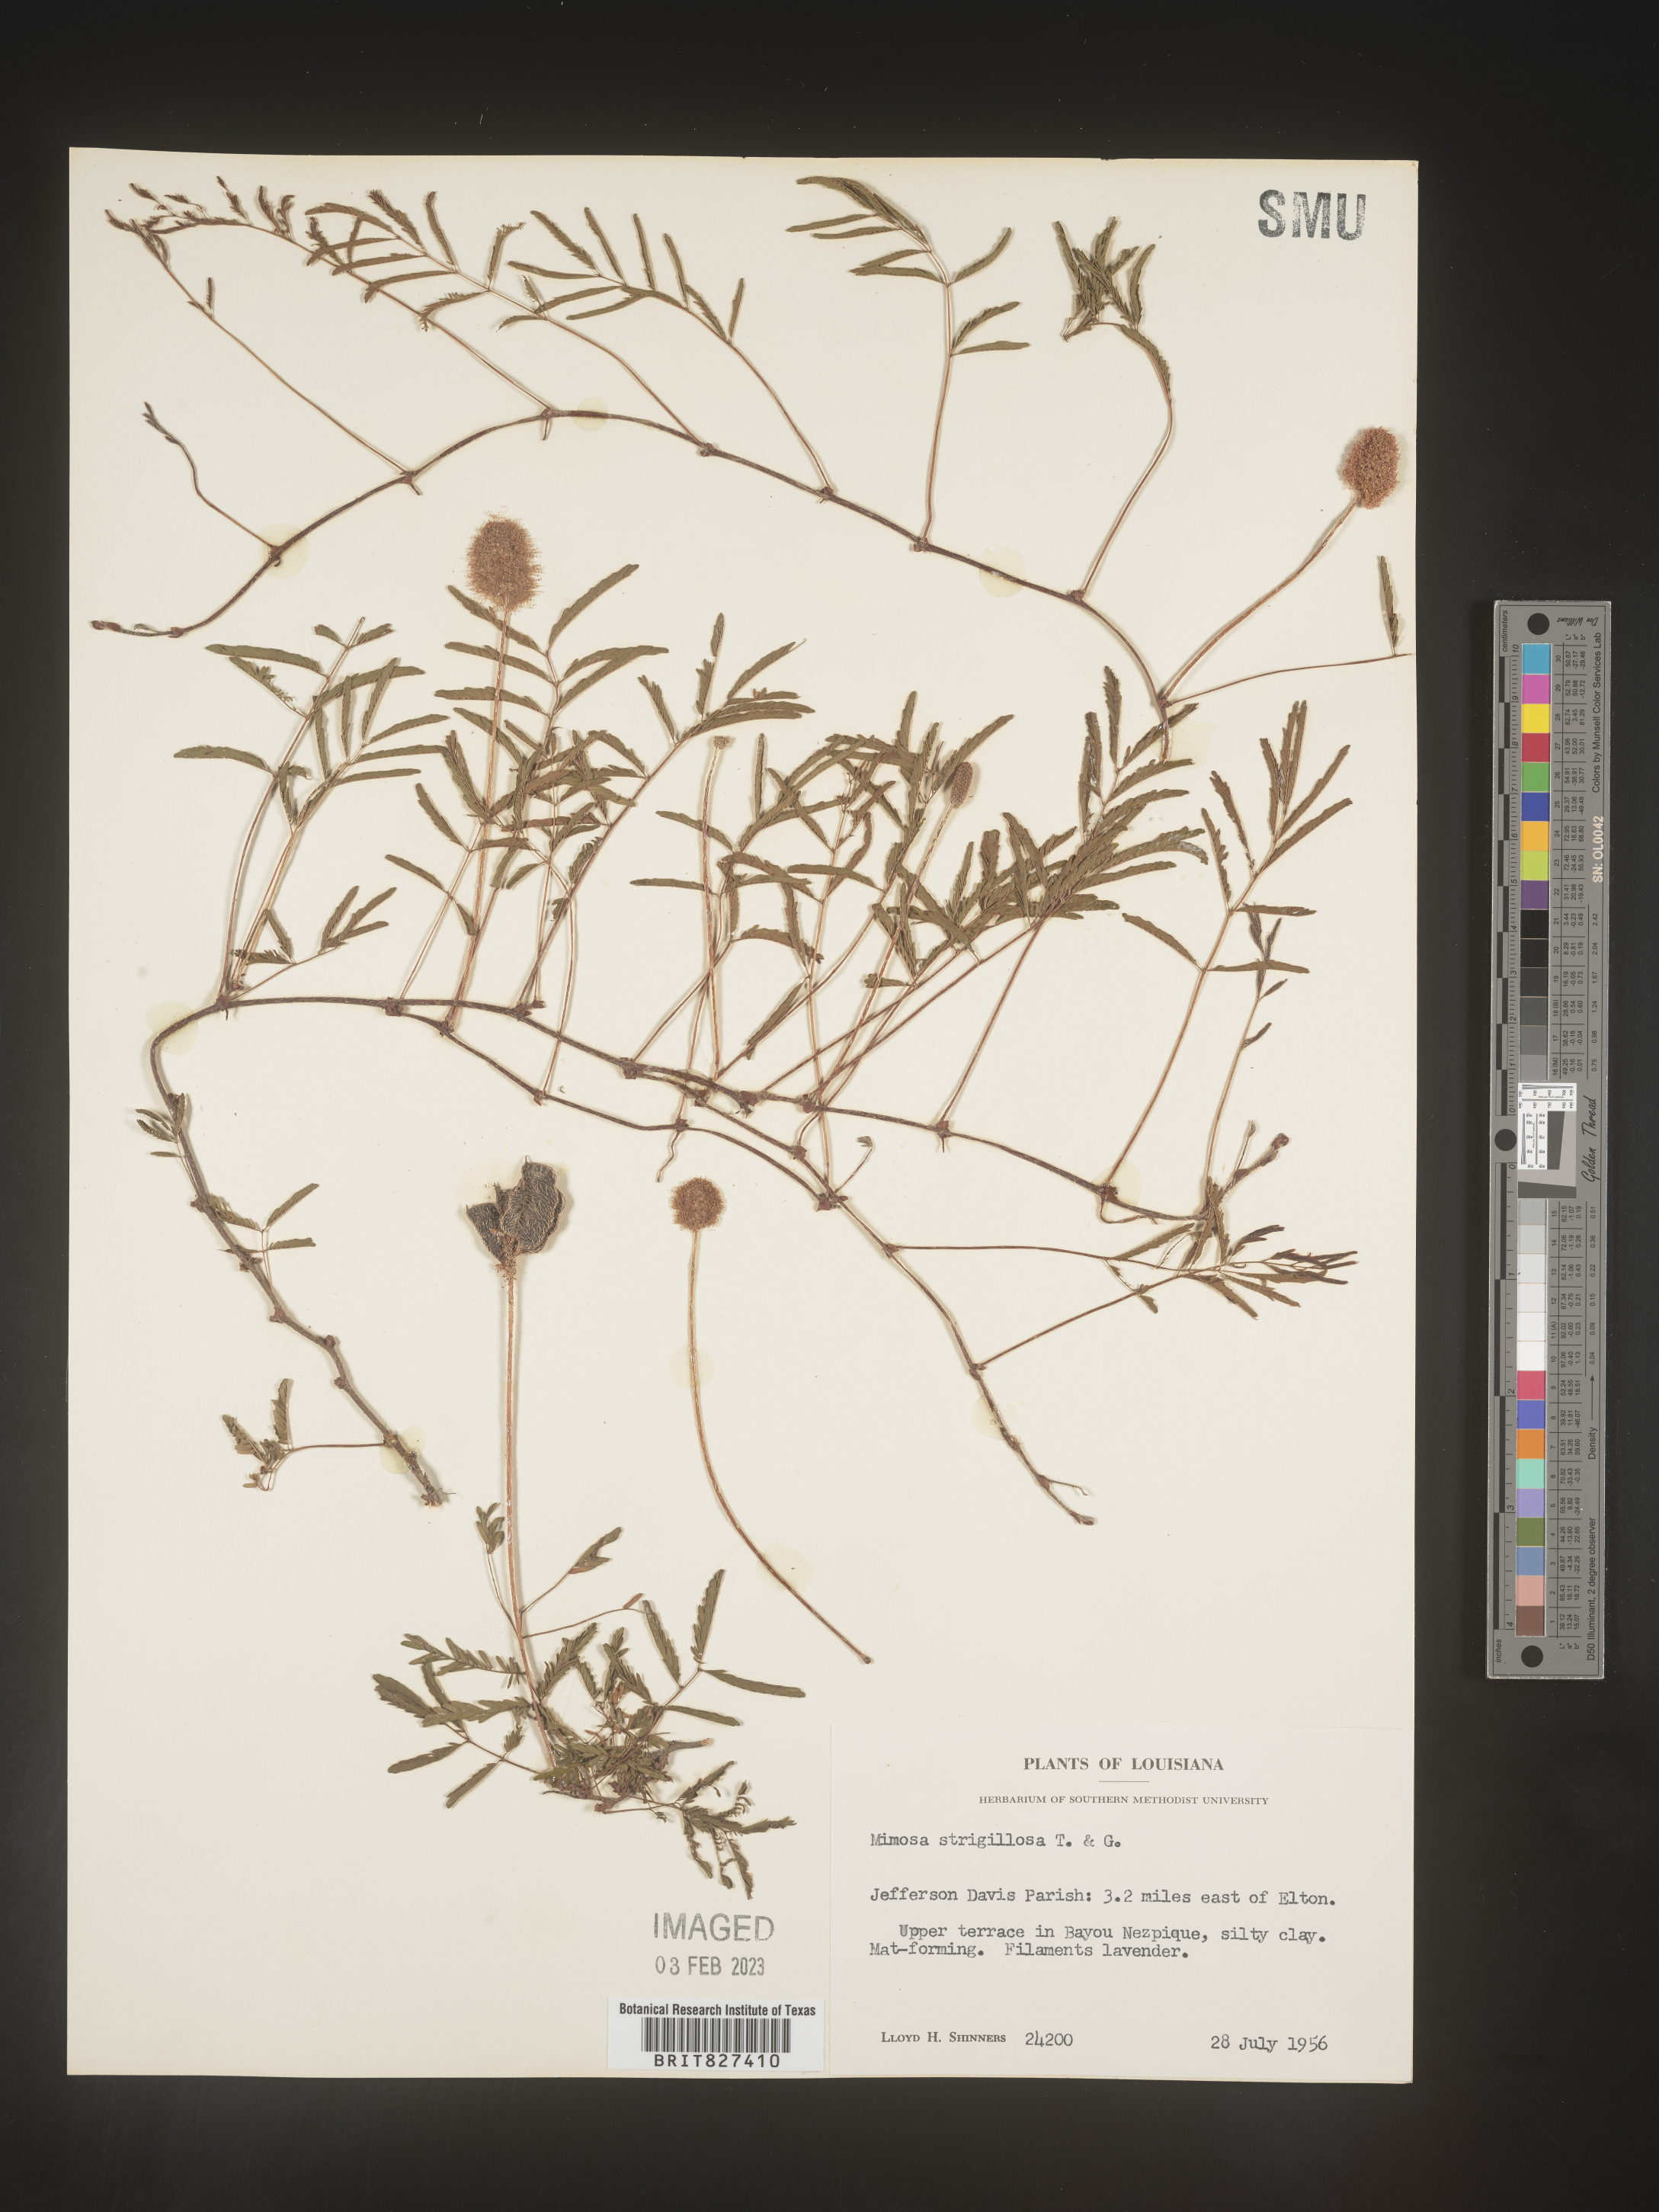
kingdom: Plantae
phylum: Tracheophyta
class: Magnoliopsida
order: Fabales
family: Fabaceae
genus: Mimosa
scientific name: Mimosa strigillosa
